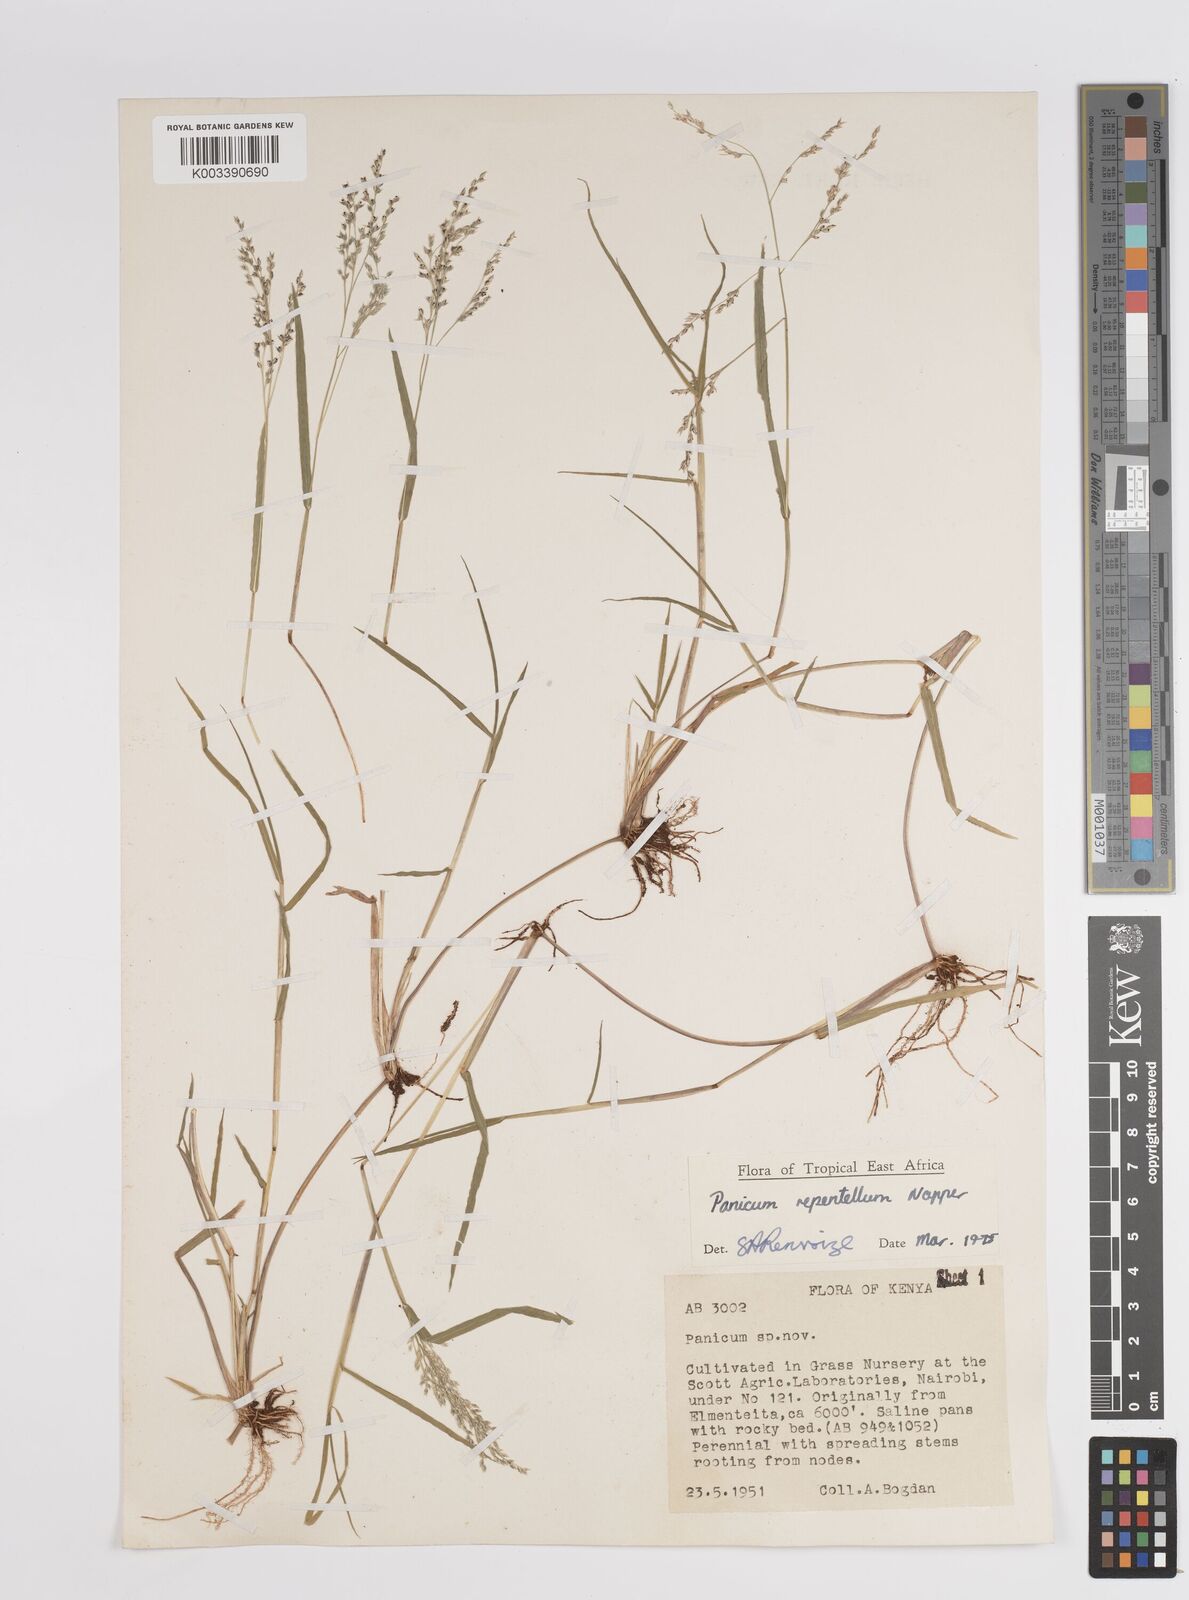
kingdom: Plantae
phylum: Tracheophyta
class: Liliopsida
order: Poales
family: Poaceae
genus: Panicum
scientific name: Panicum hygrocharis
